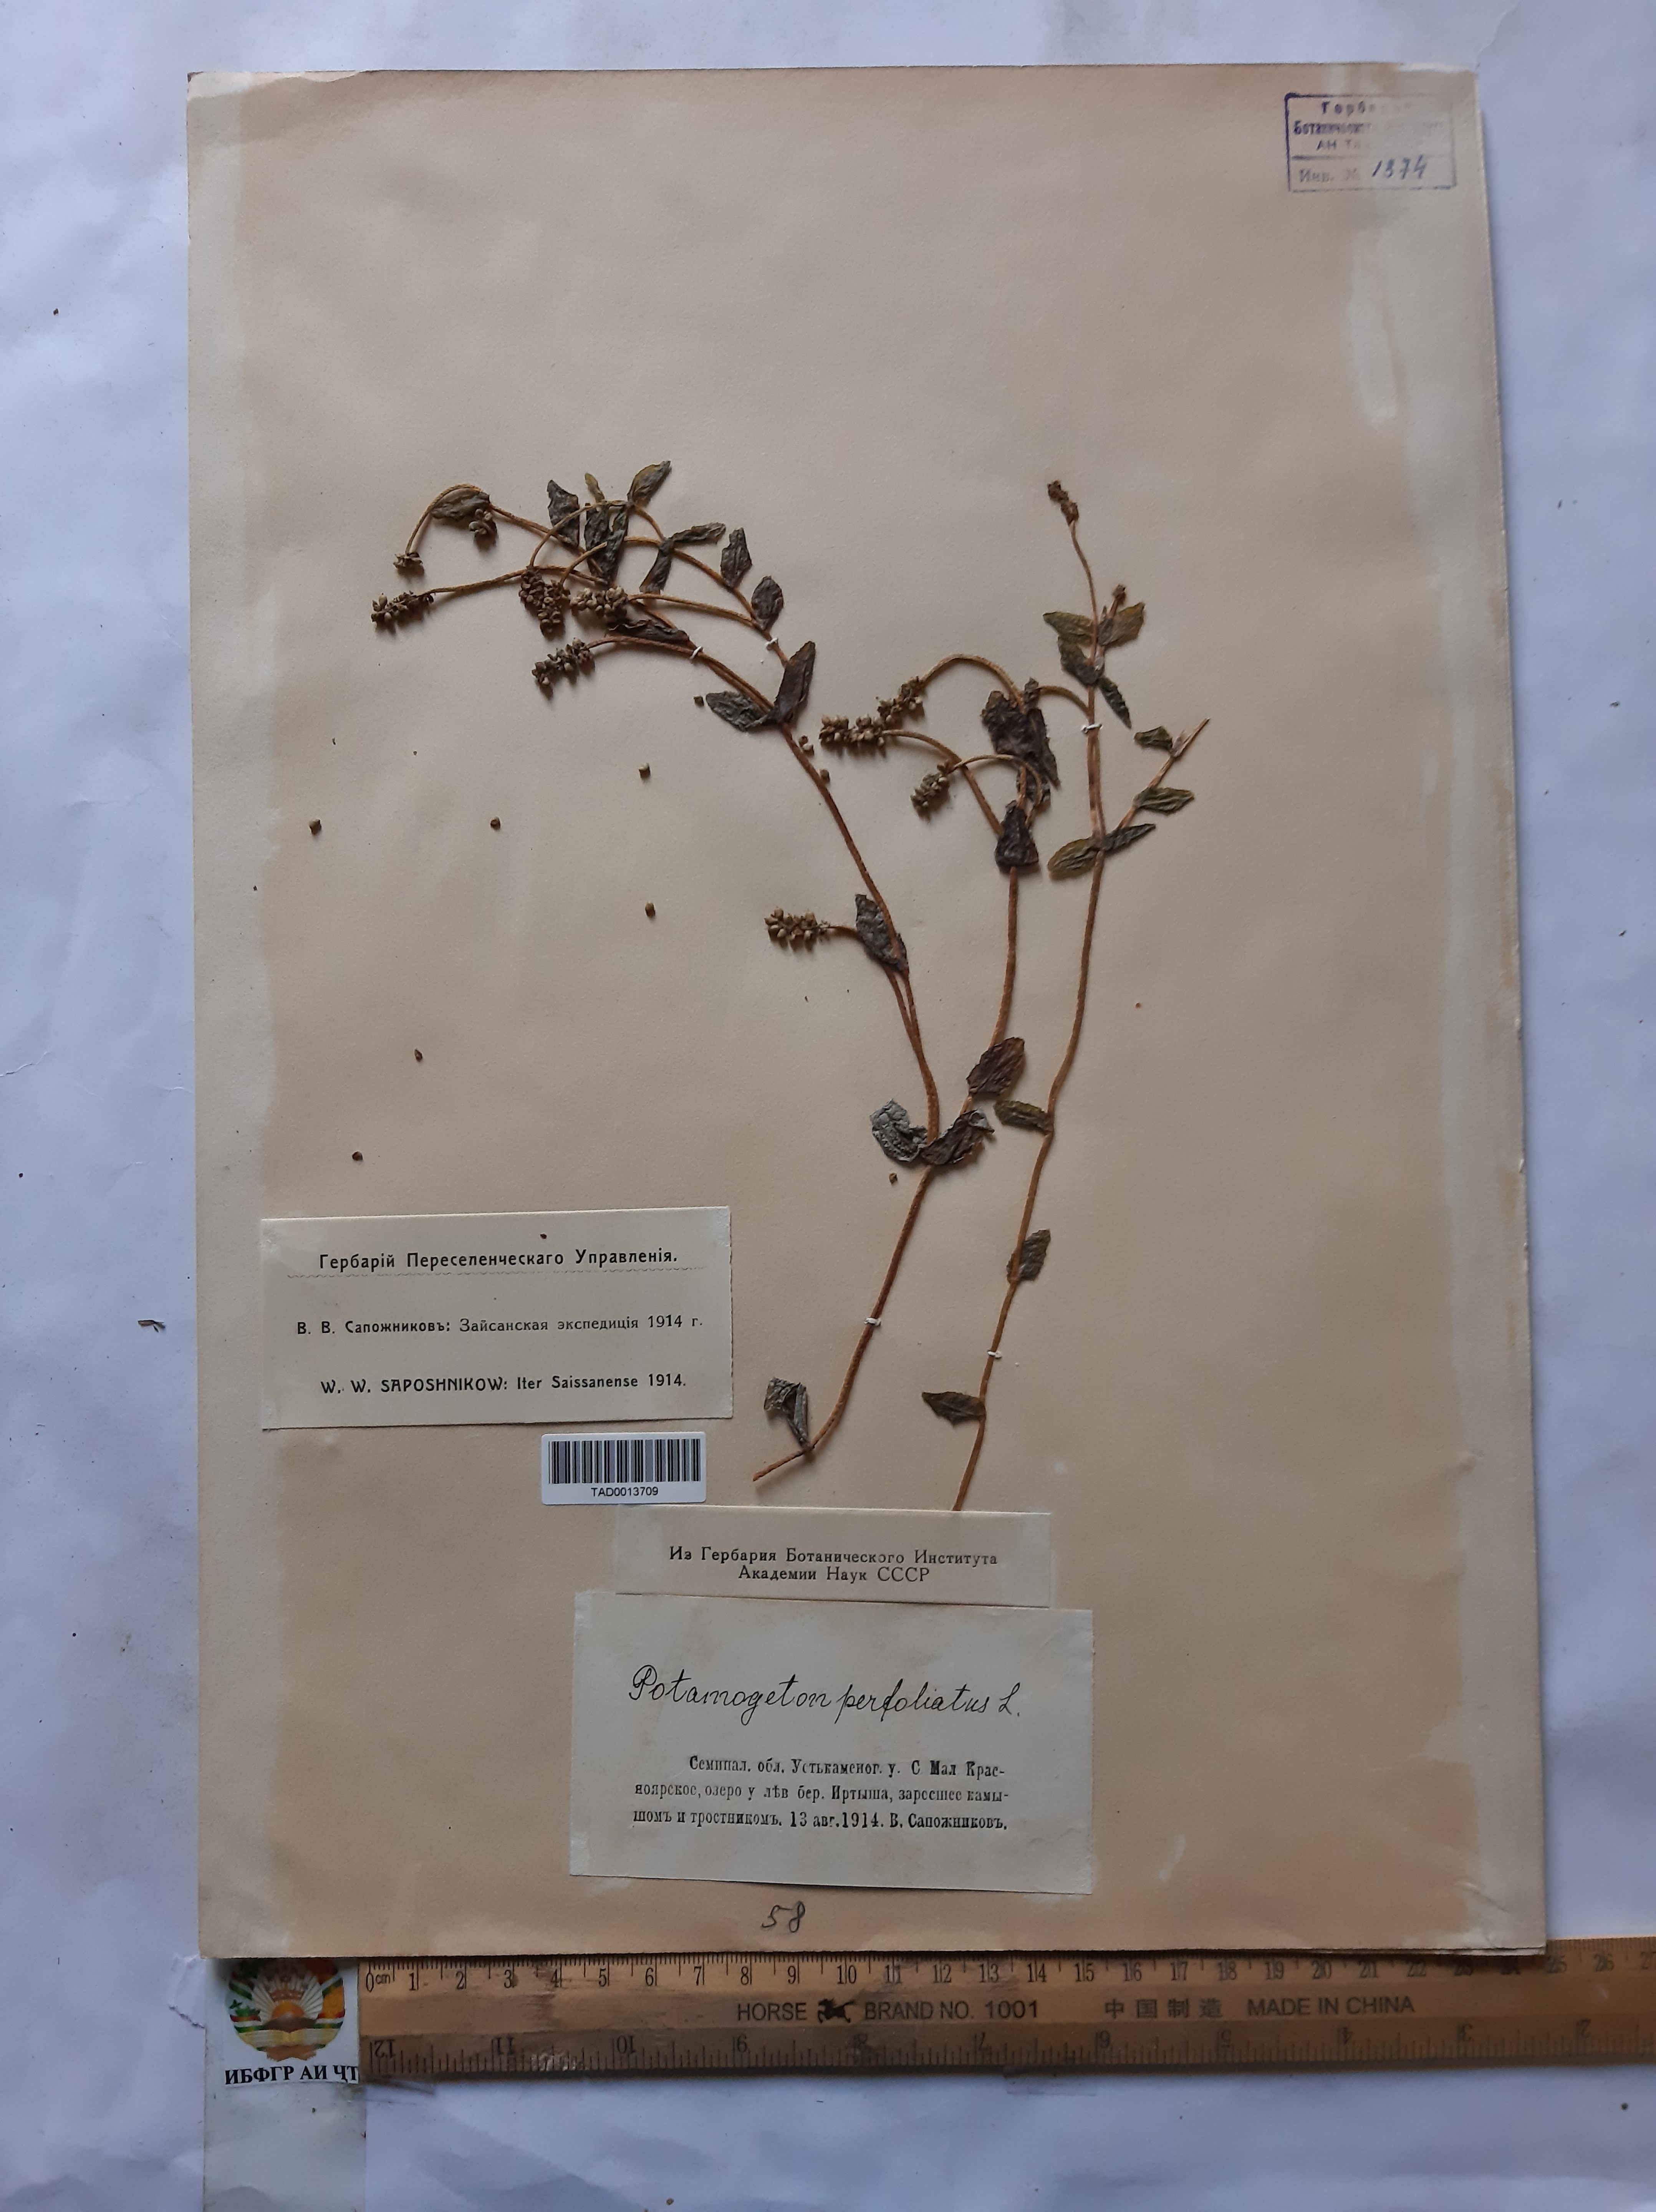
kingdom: Plantae
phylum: Tracheophyta
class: Liliopsida
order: Alismatales
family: Potamogetonaceae
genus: Potamogeton
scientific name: Potamogeton perfoliatus
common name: Perfoliate pondweed
